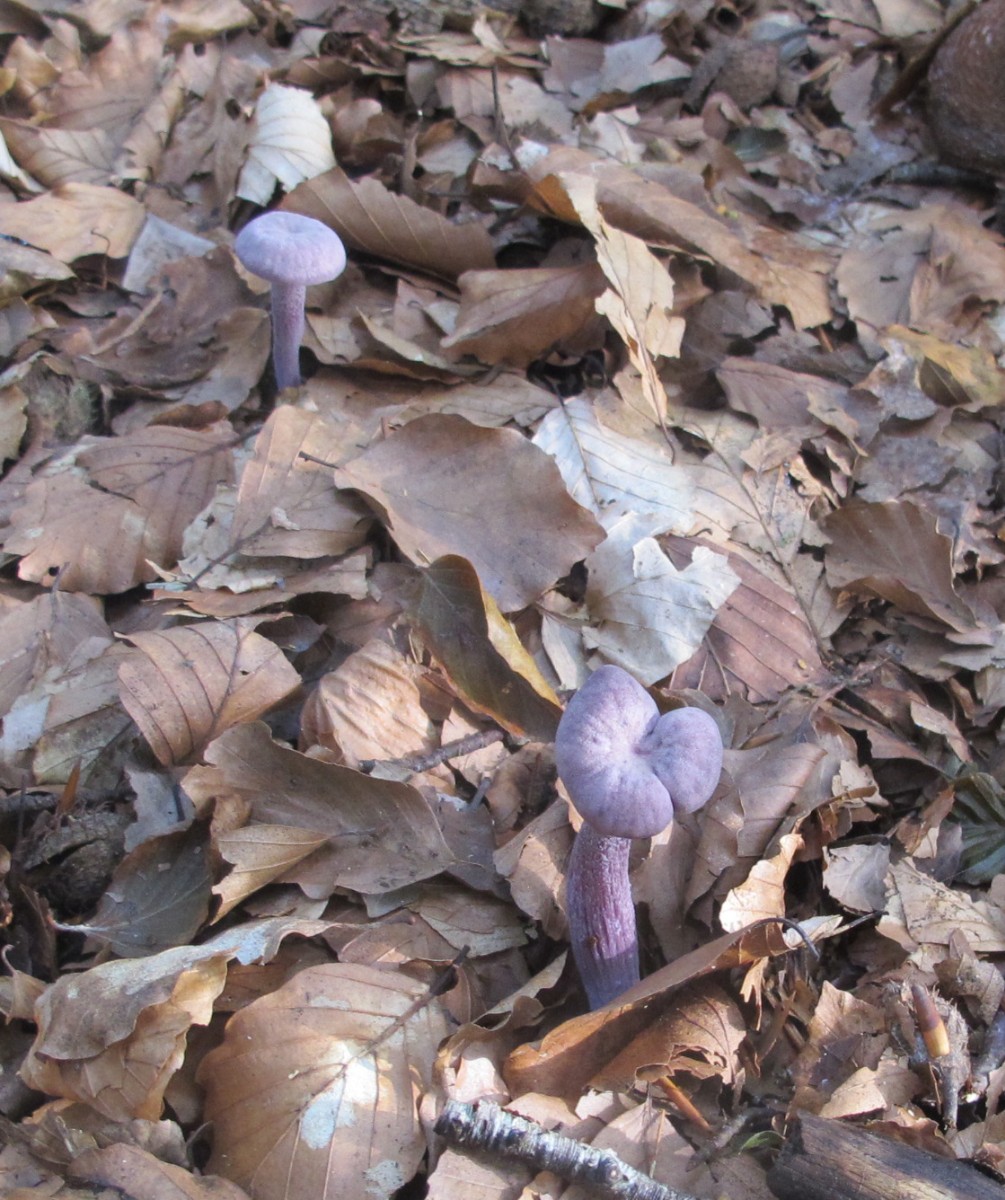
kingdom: Fungi
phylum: Basidiomycota
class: Agaricomycetes
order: Agaricales
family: Hydnangiaceae
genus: Laccaria
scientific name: Laccaria amethystina
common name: violet ametysthat
